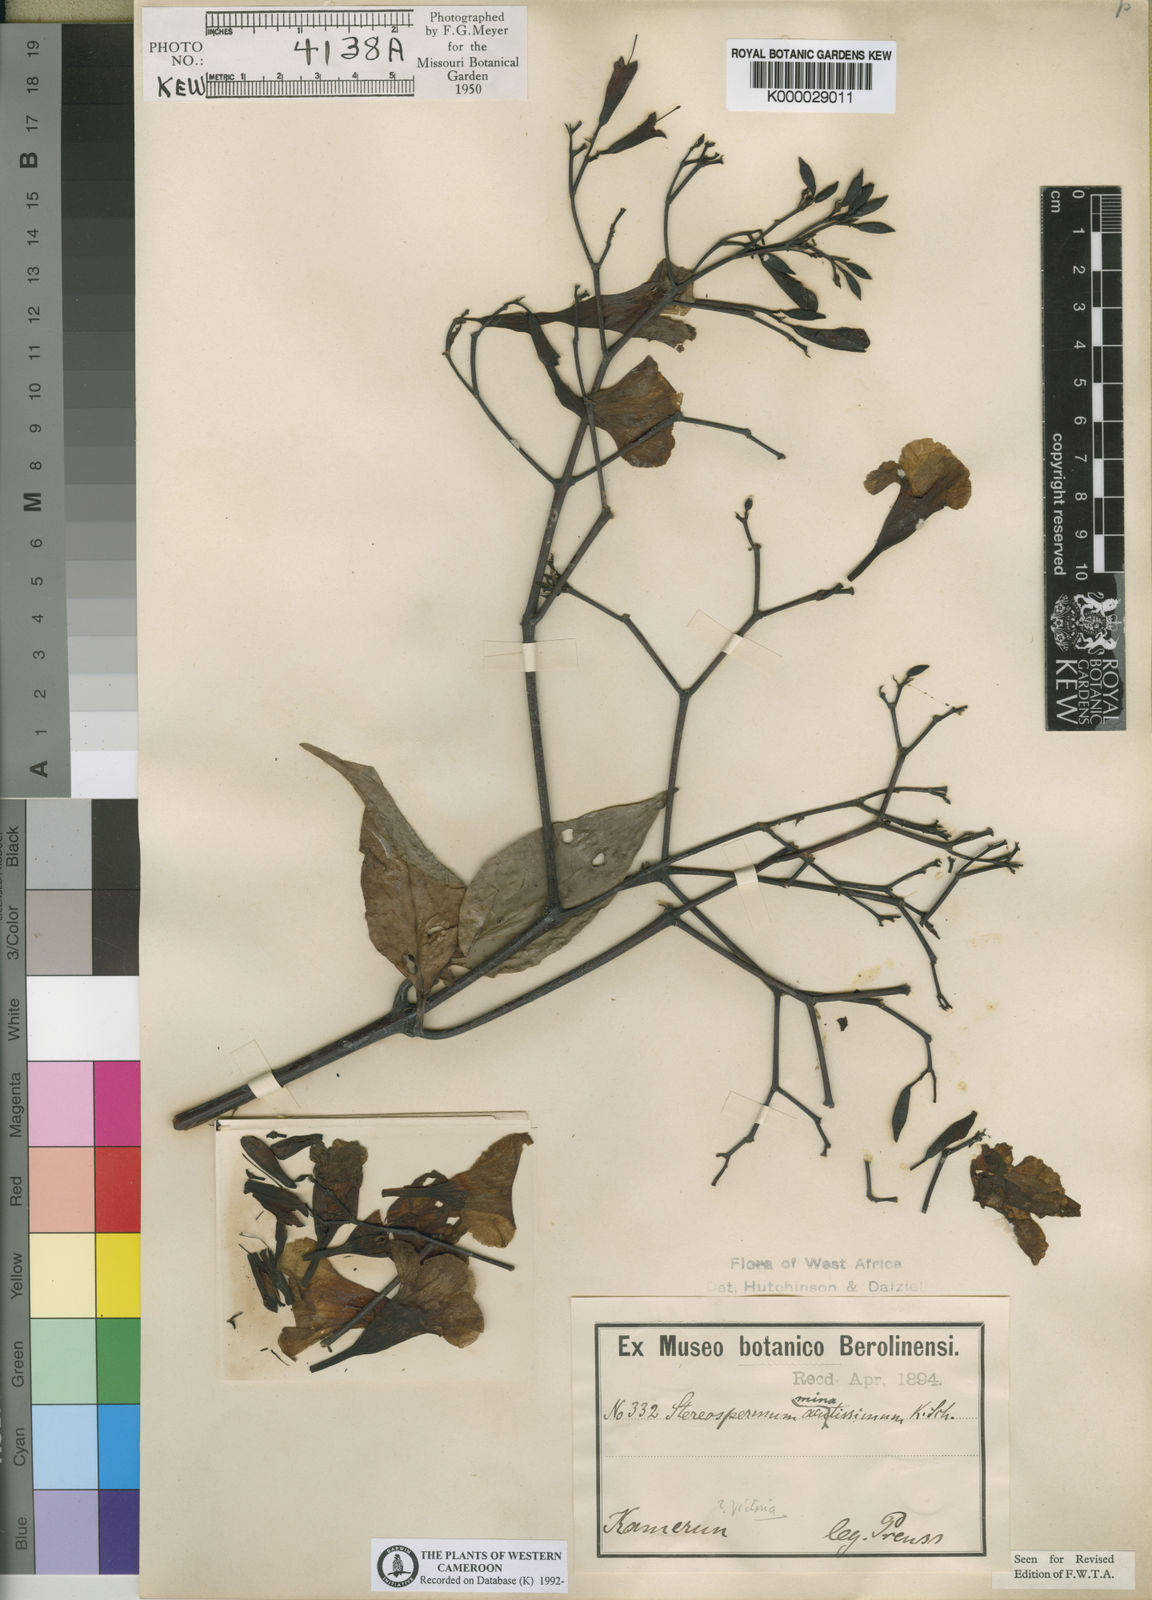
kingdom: Plantae
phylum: Tracheophyta
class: Magnoliopsida
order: Lamiales
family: Bignoniaceae
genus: Stereospermum
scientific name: Stereospermum acuminatissimum
